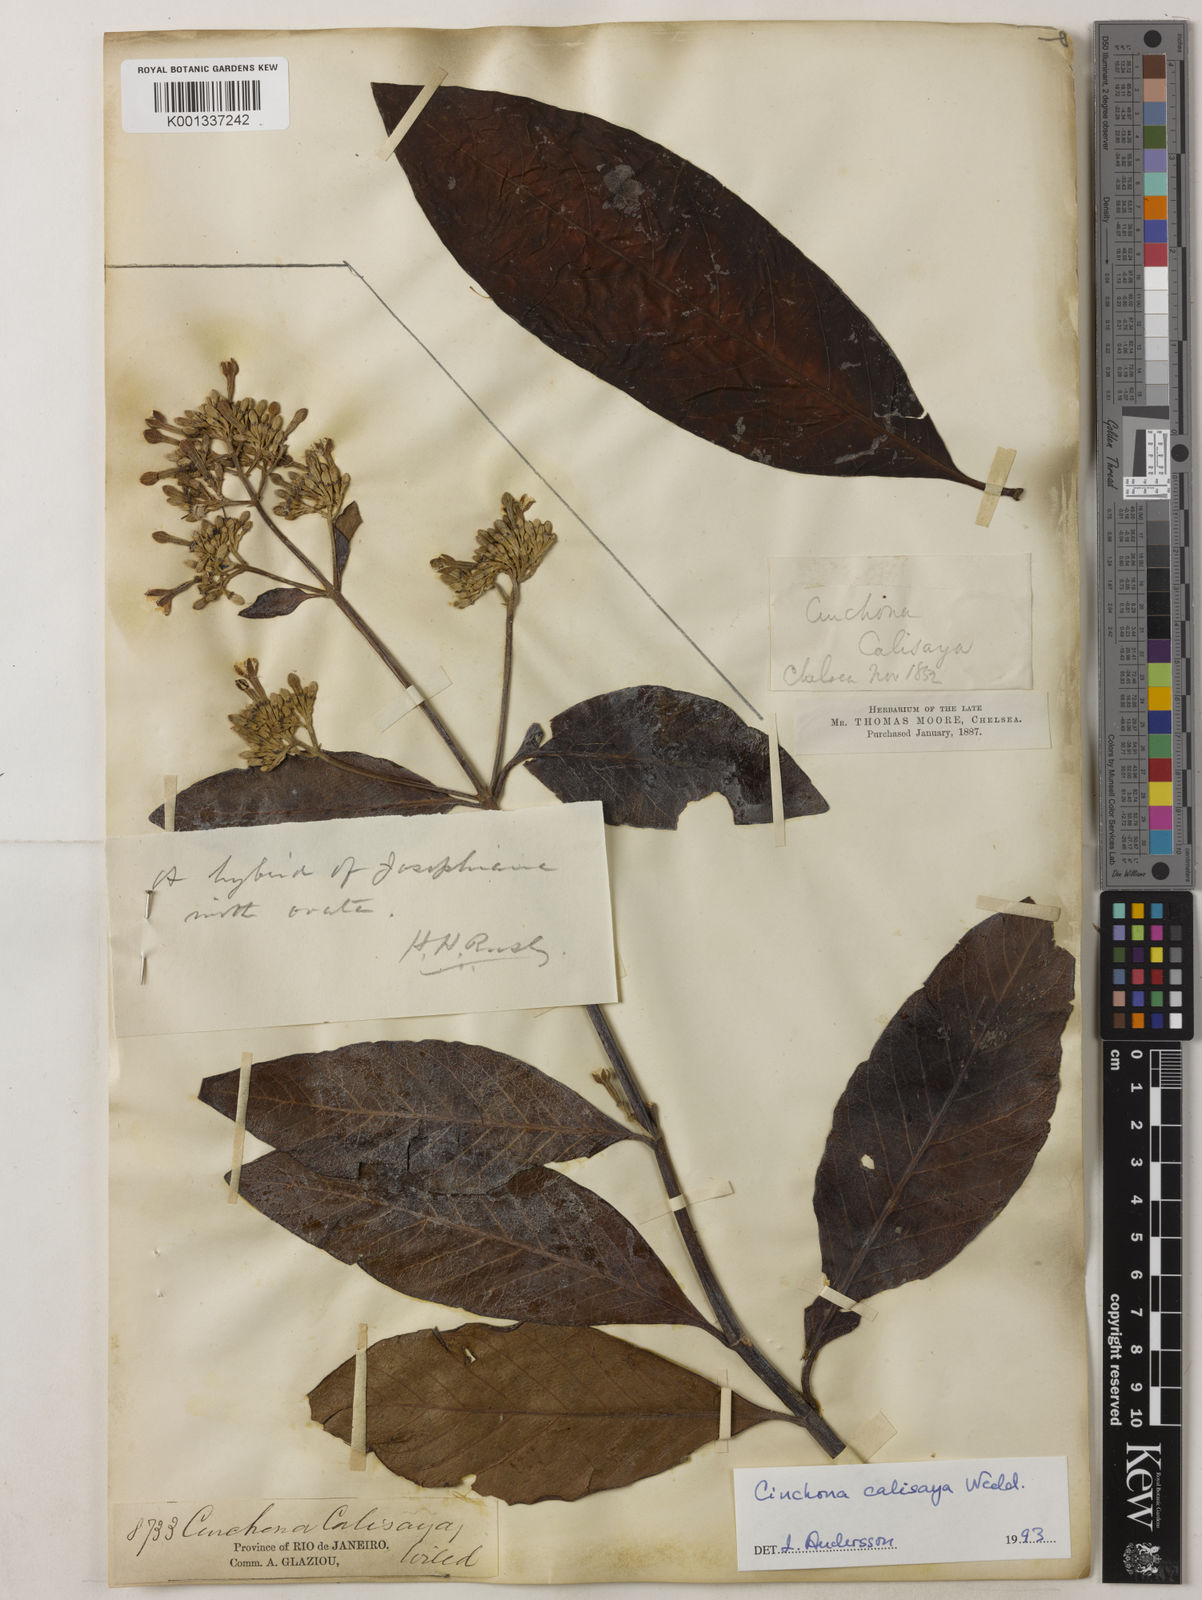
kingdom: Plantae
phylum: Tracheophyta
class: Magnoliopsida
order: Gentianales
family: Rubiaceae
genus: Cinchona
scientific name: Cinchona calisaya
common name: Ledgerbark
